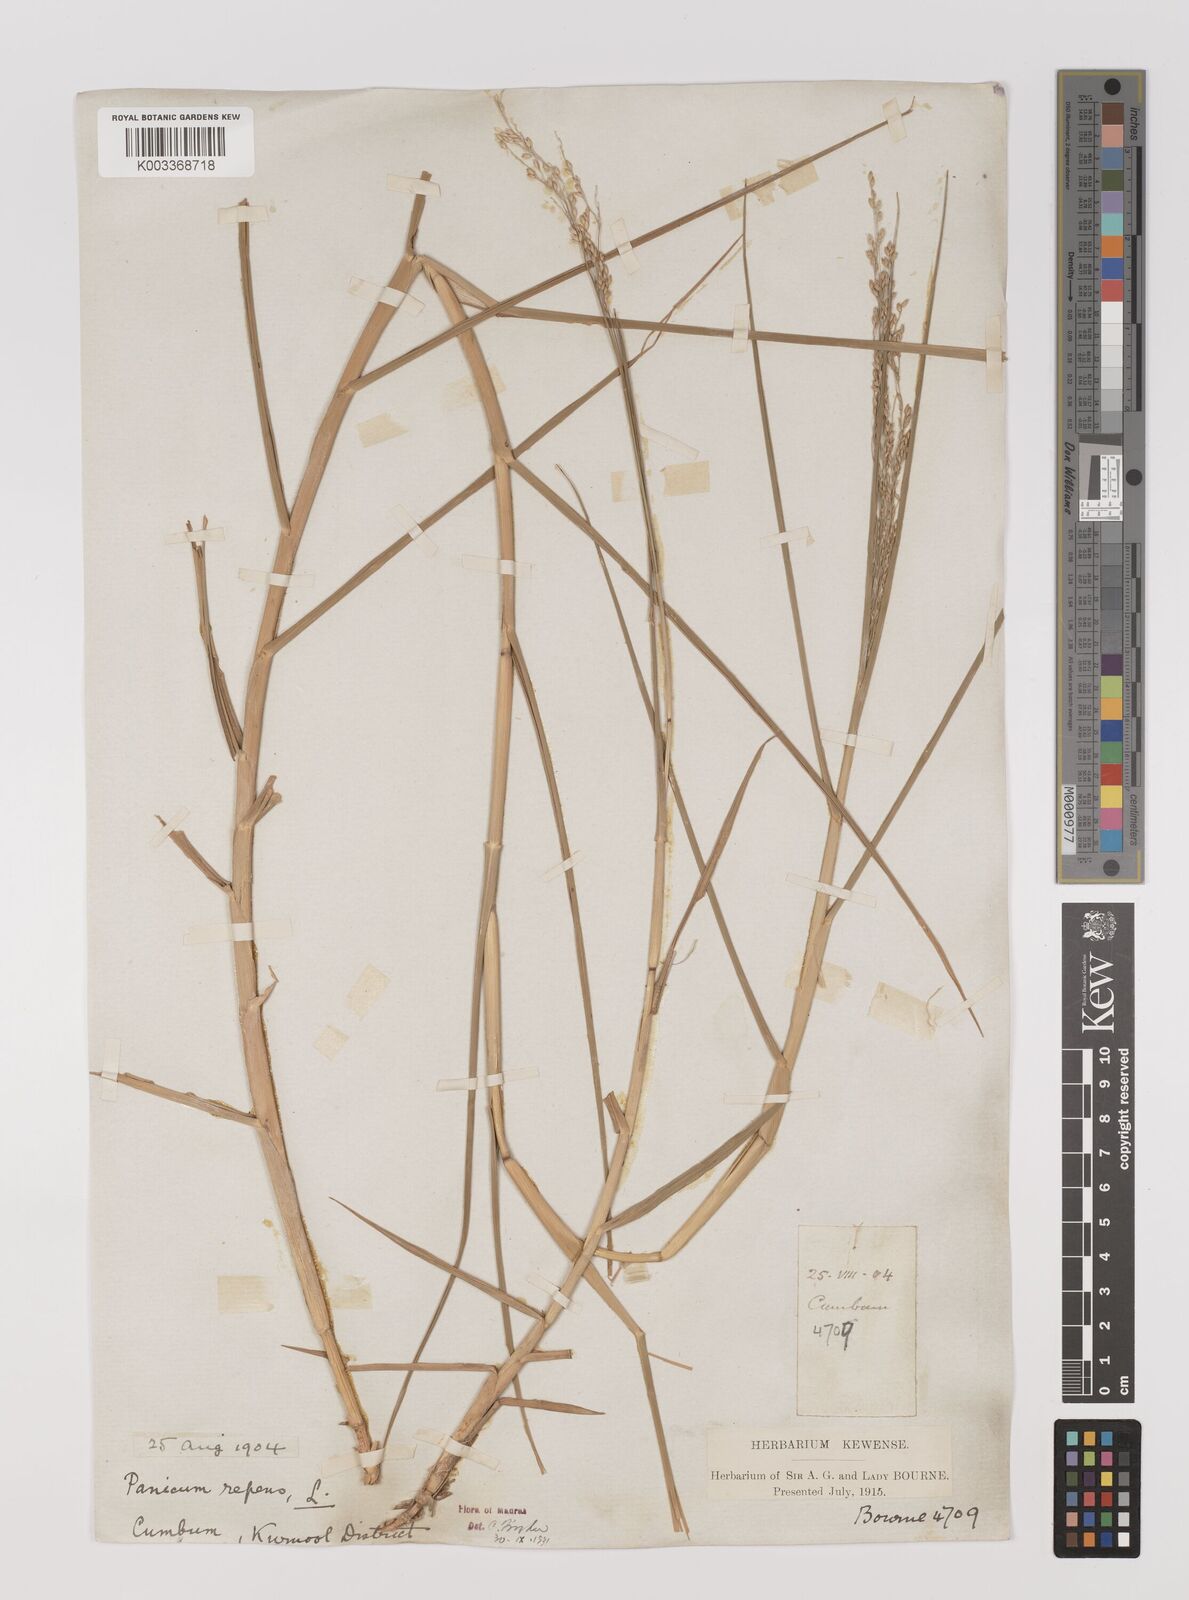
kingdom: Plantae
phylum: Tracheophyta
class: Liliopsida
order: Poales
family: Poaceae
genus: Panicum
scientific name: Panicum repens
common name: Torpedo grass
